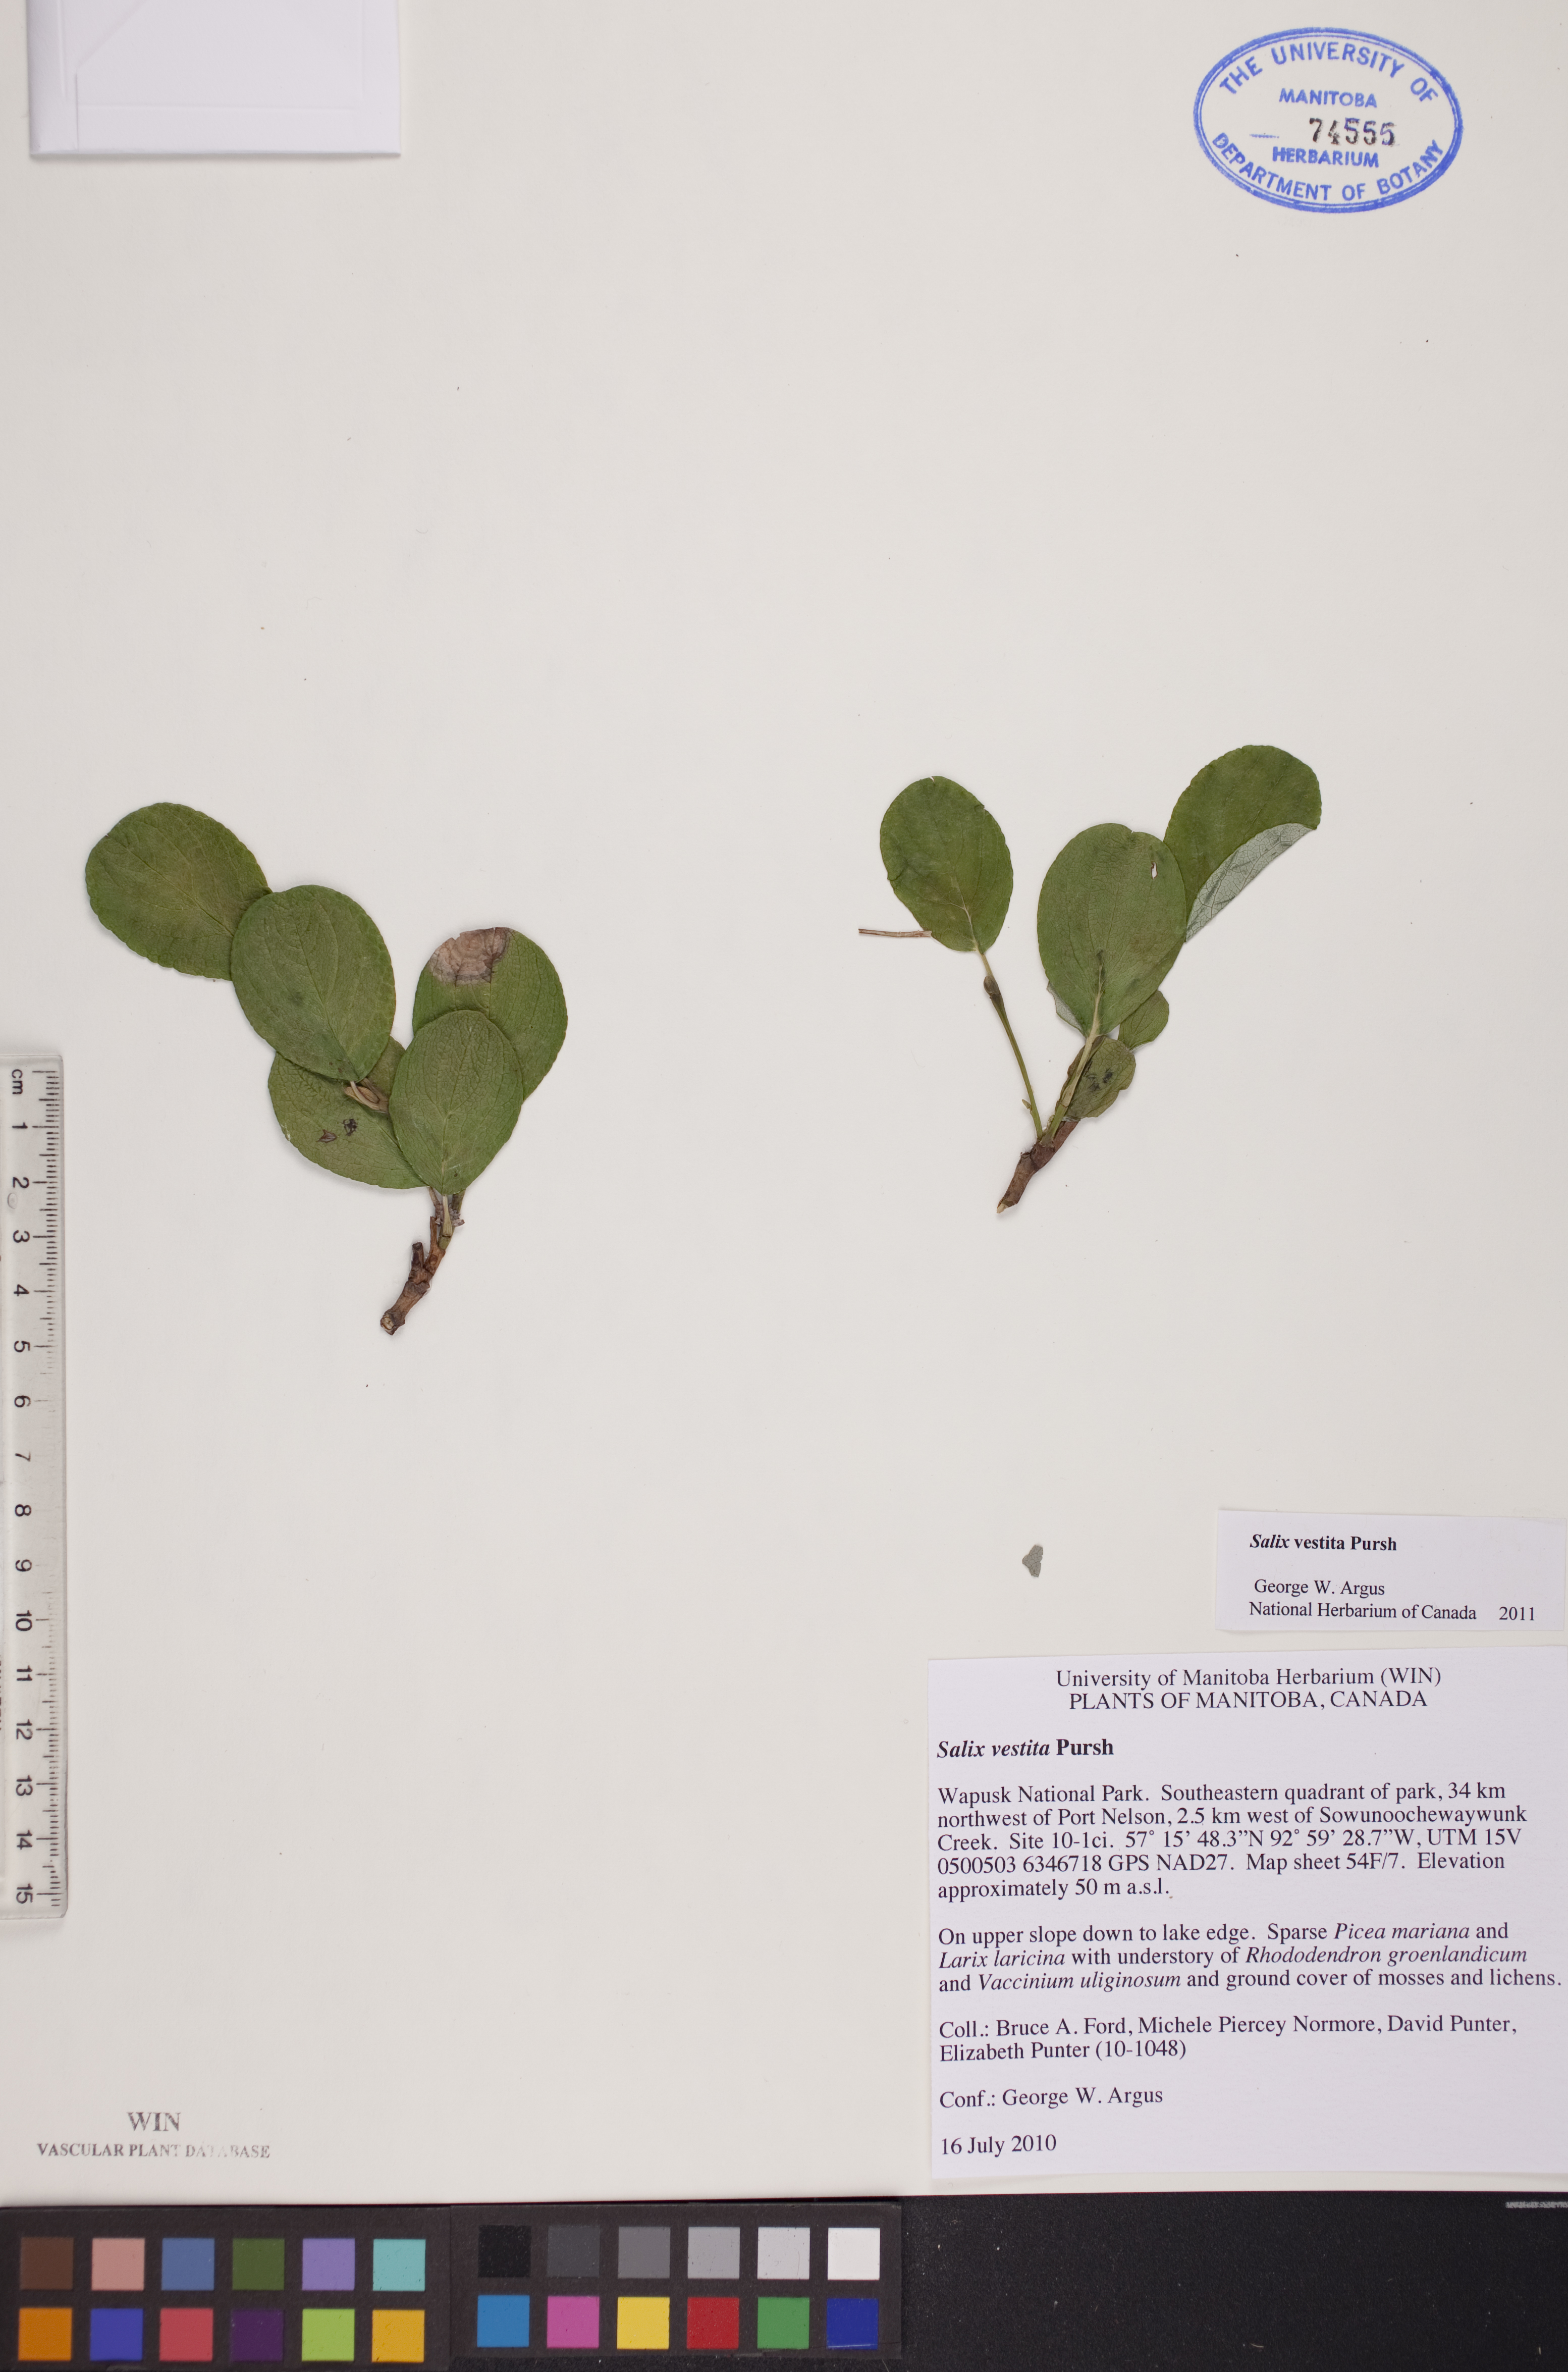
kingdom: Plantae
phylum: Tracheophyta
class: Magnoliopsida
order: Malpighiales
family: Salicaceae
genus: Salix
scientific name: Salix vestita
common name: Hairy willow
